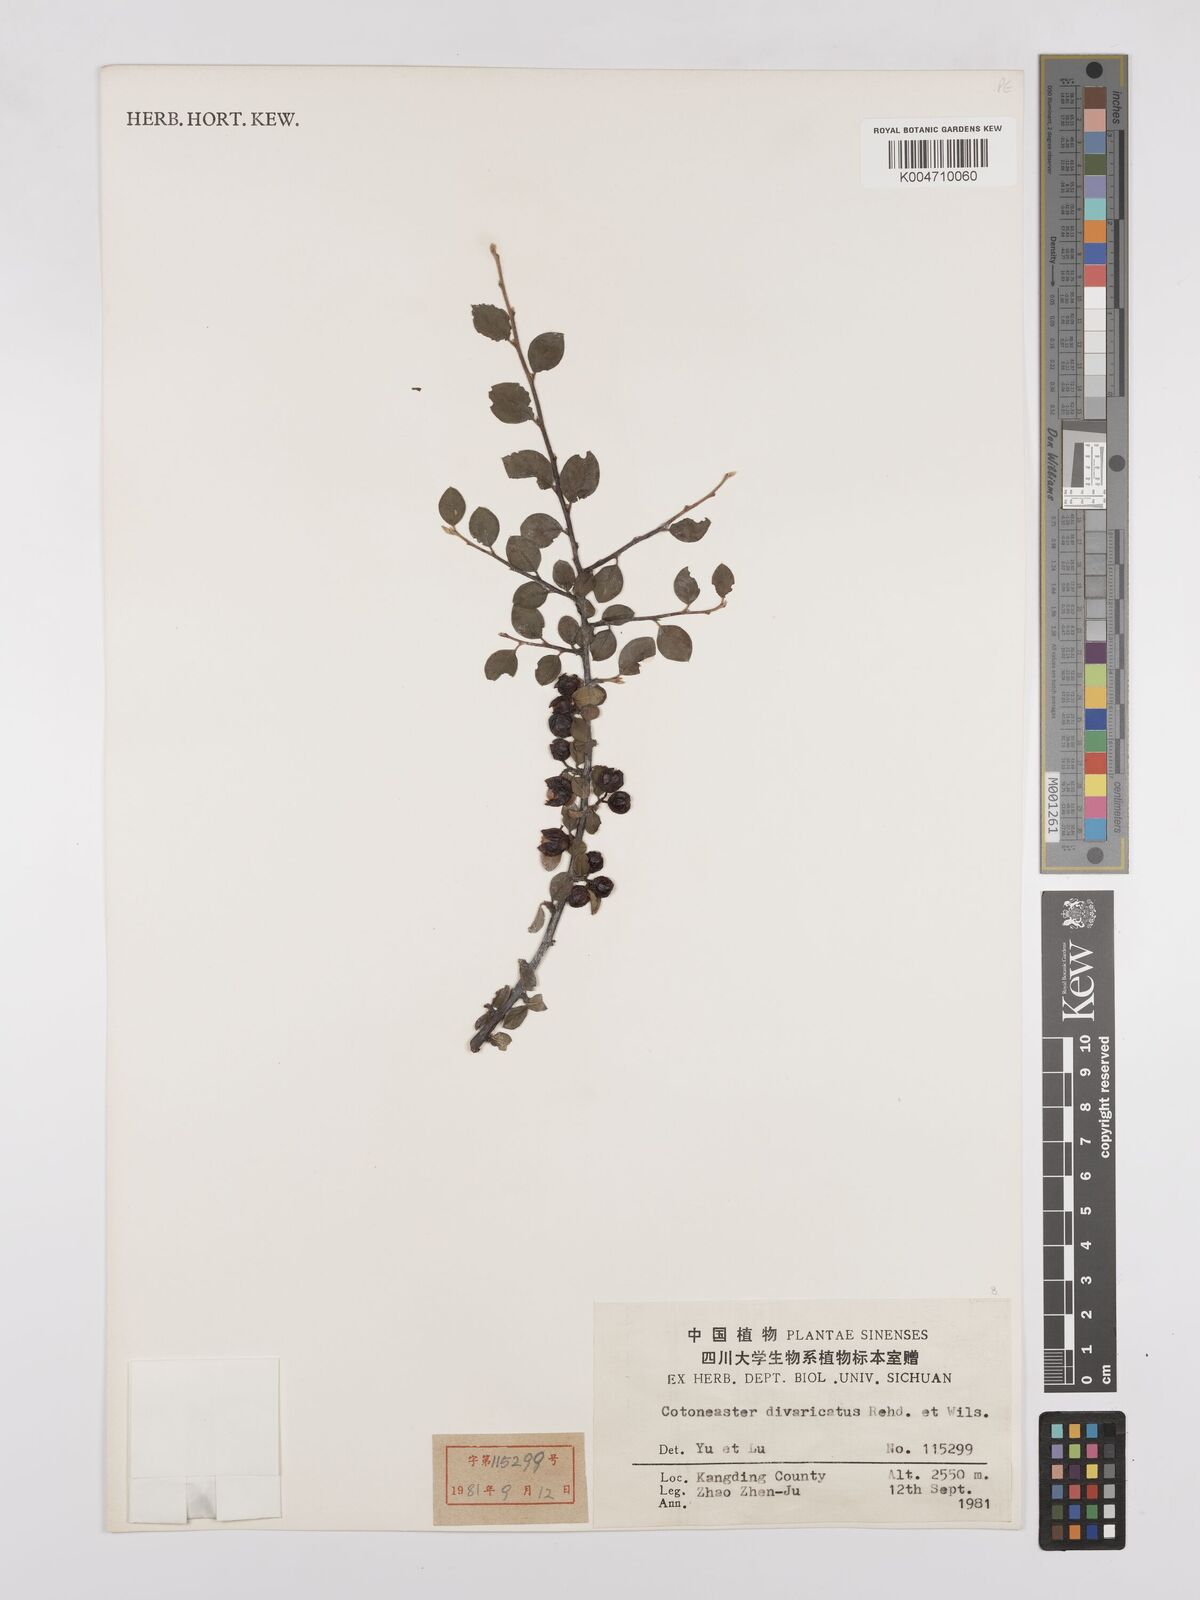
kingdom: Plantae
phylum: Tracheophyta
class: Magnoliopsida
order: Rosales
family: Rosaceae
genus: Cotoneaster
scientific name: Cotoneaster divaricatus
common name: Spreading cotoneaster
